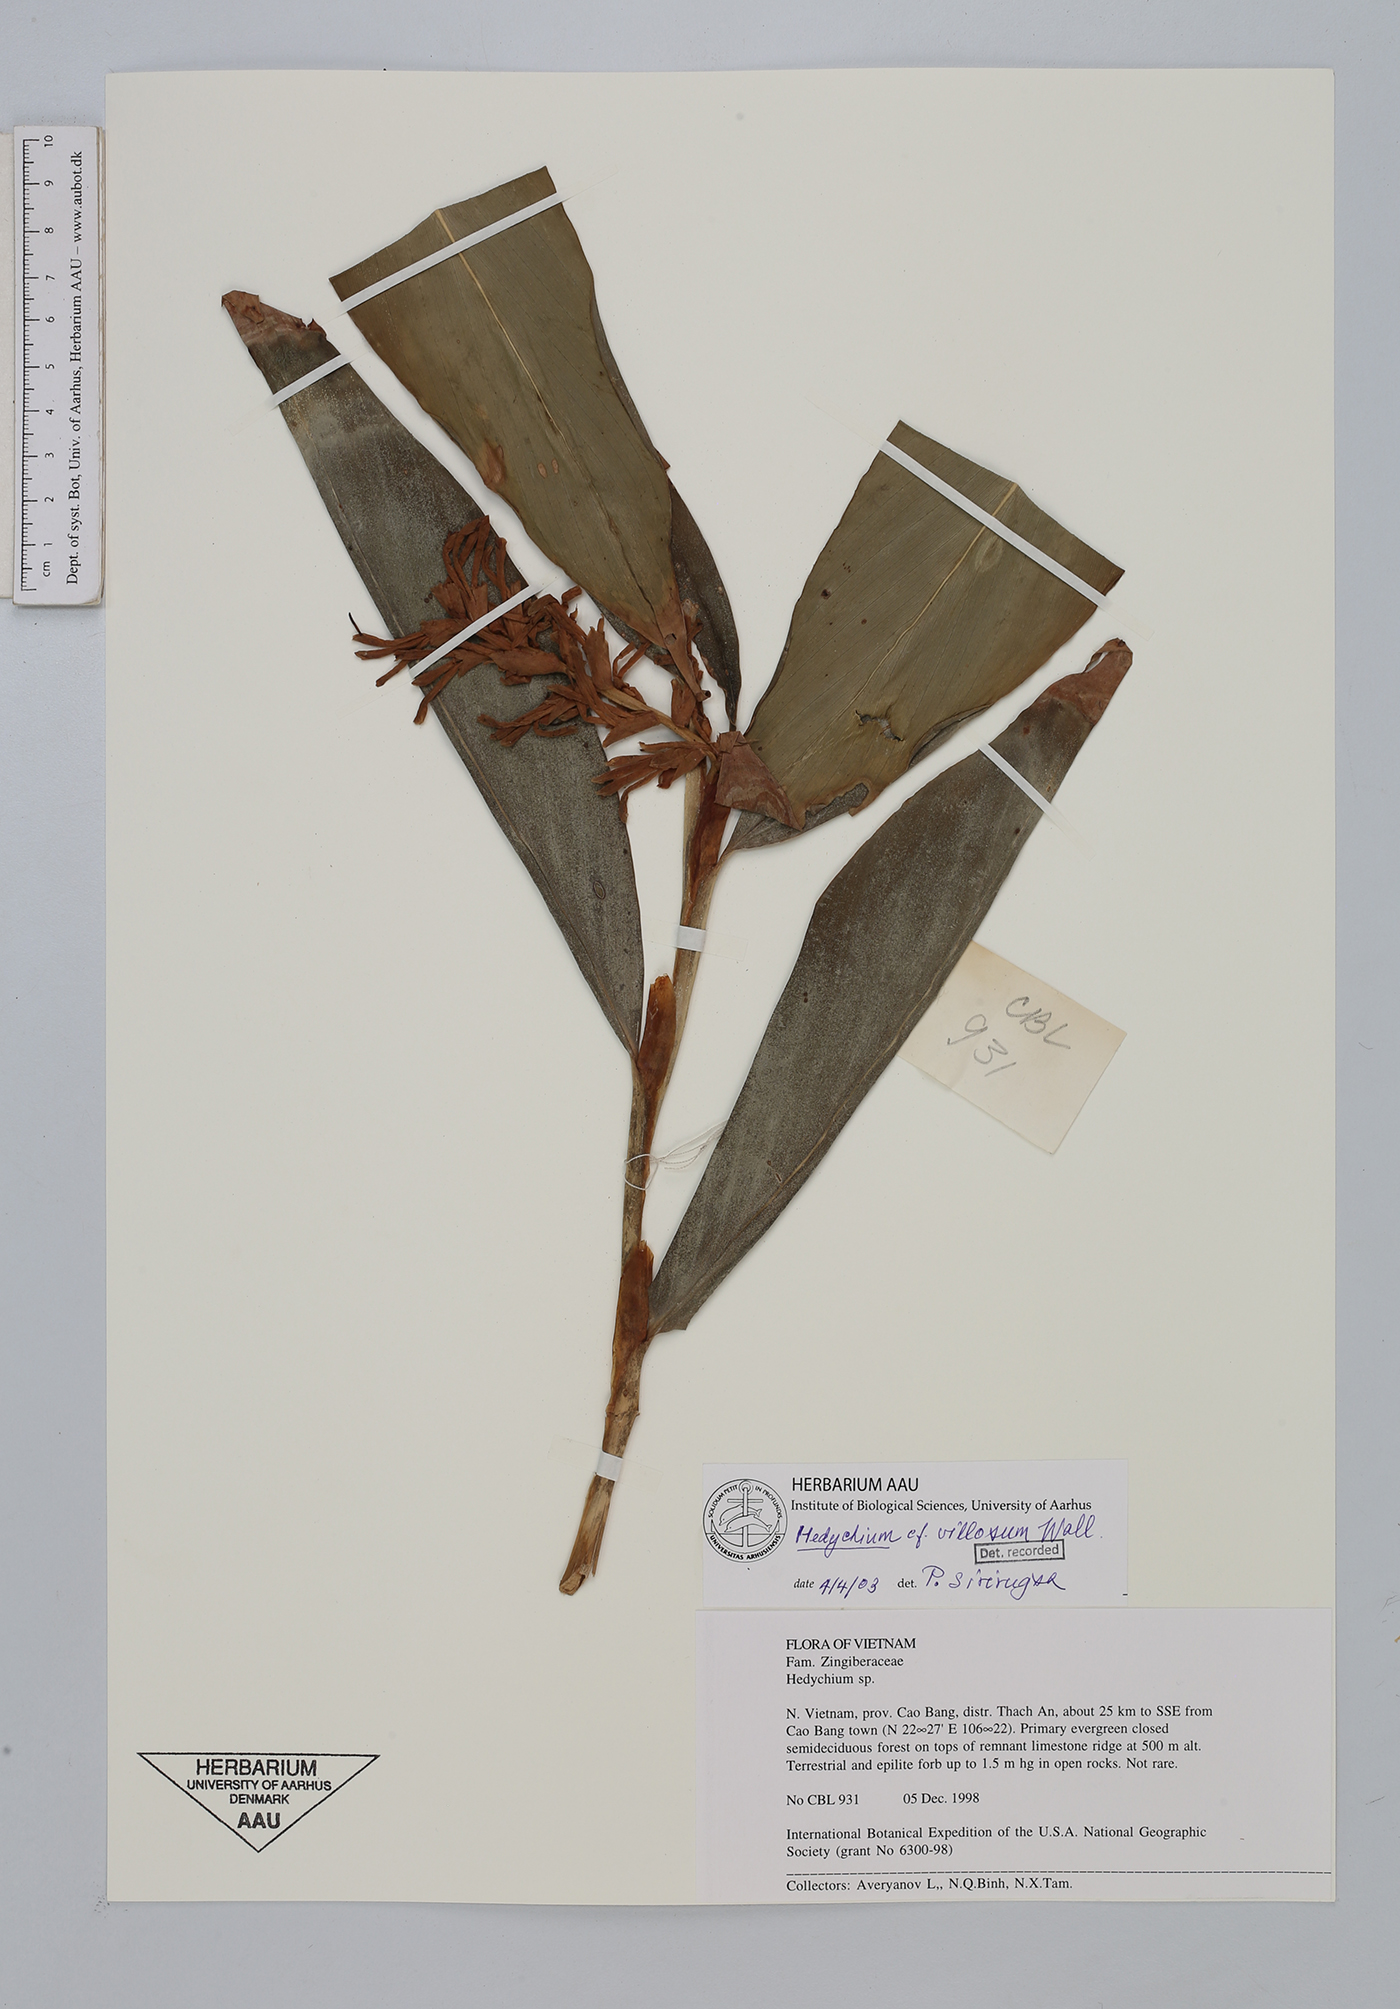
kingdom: Plantae
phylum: Tracheophyta
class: Liliopsida
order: Zingiberales
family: Zingiberaceae
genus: Hedychium
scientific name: Hedychium villosum
